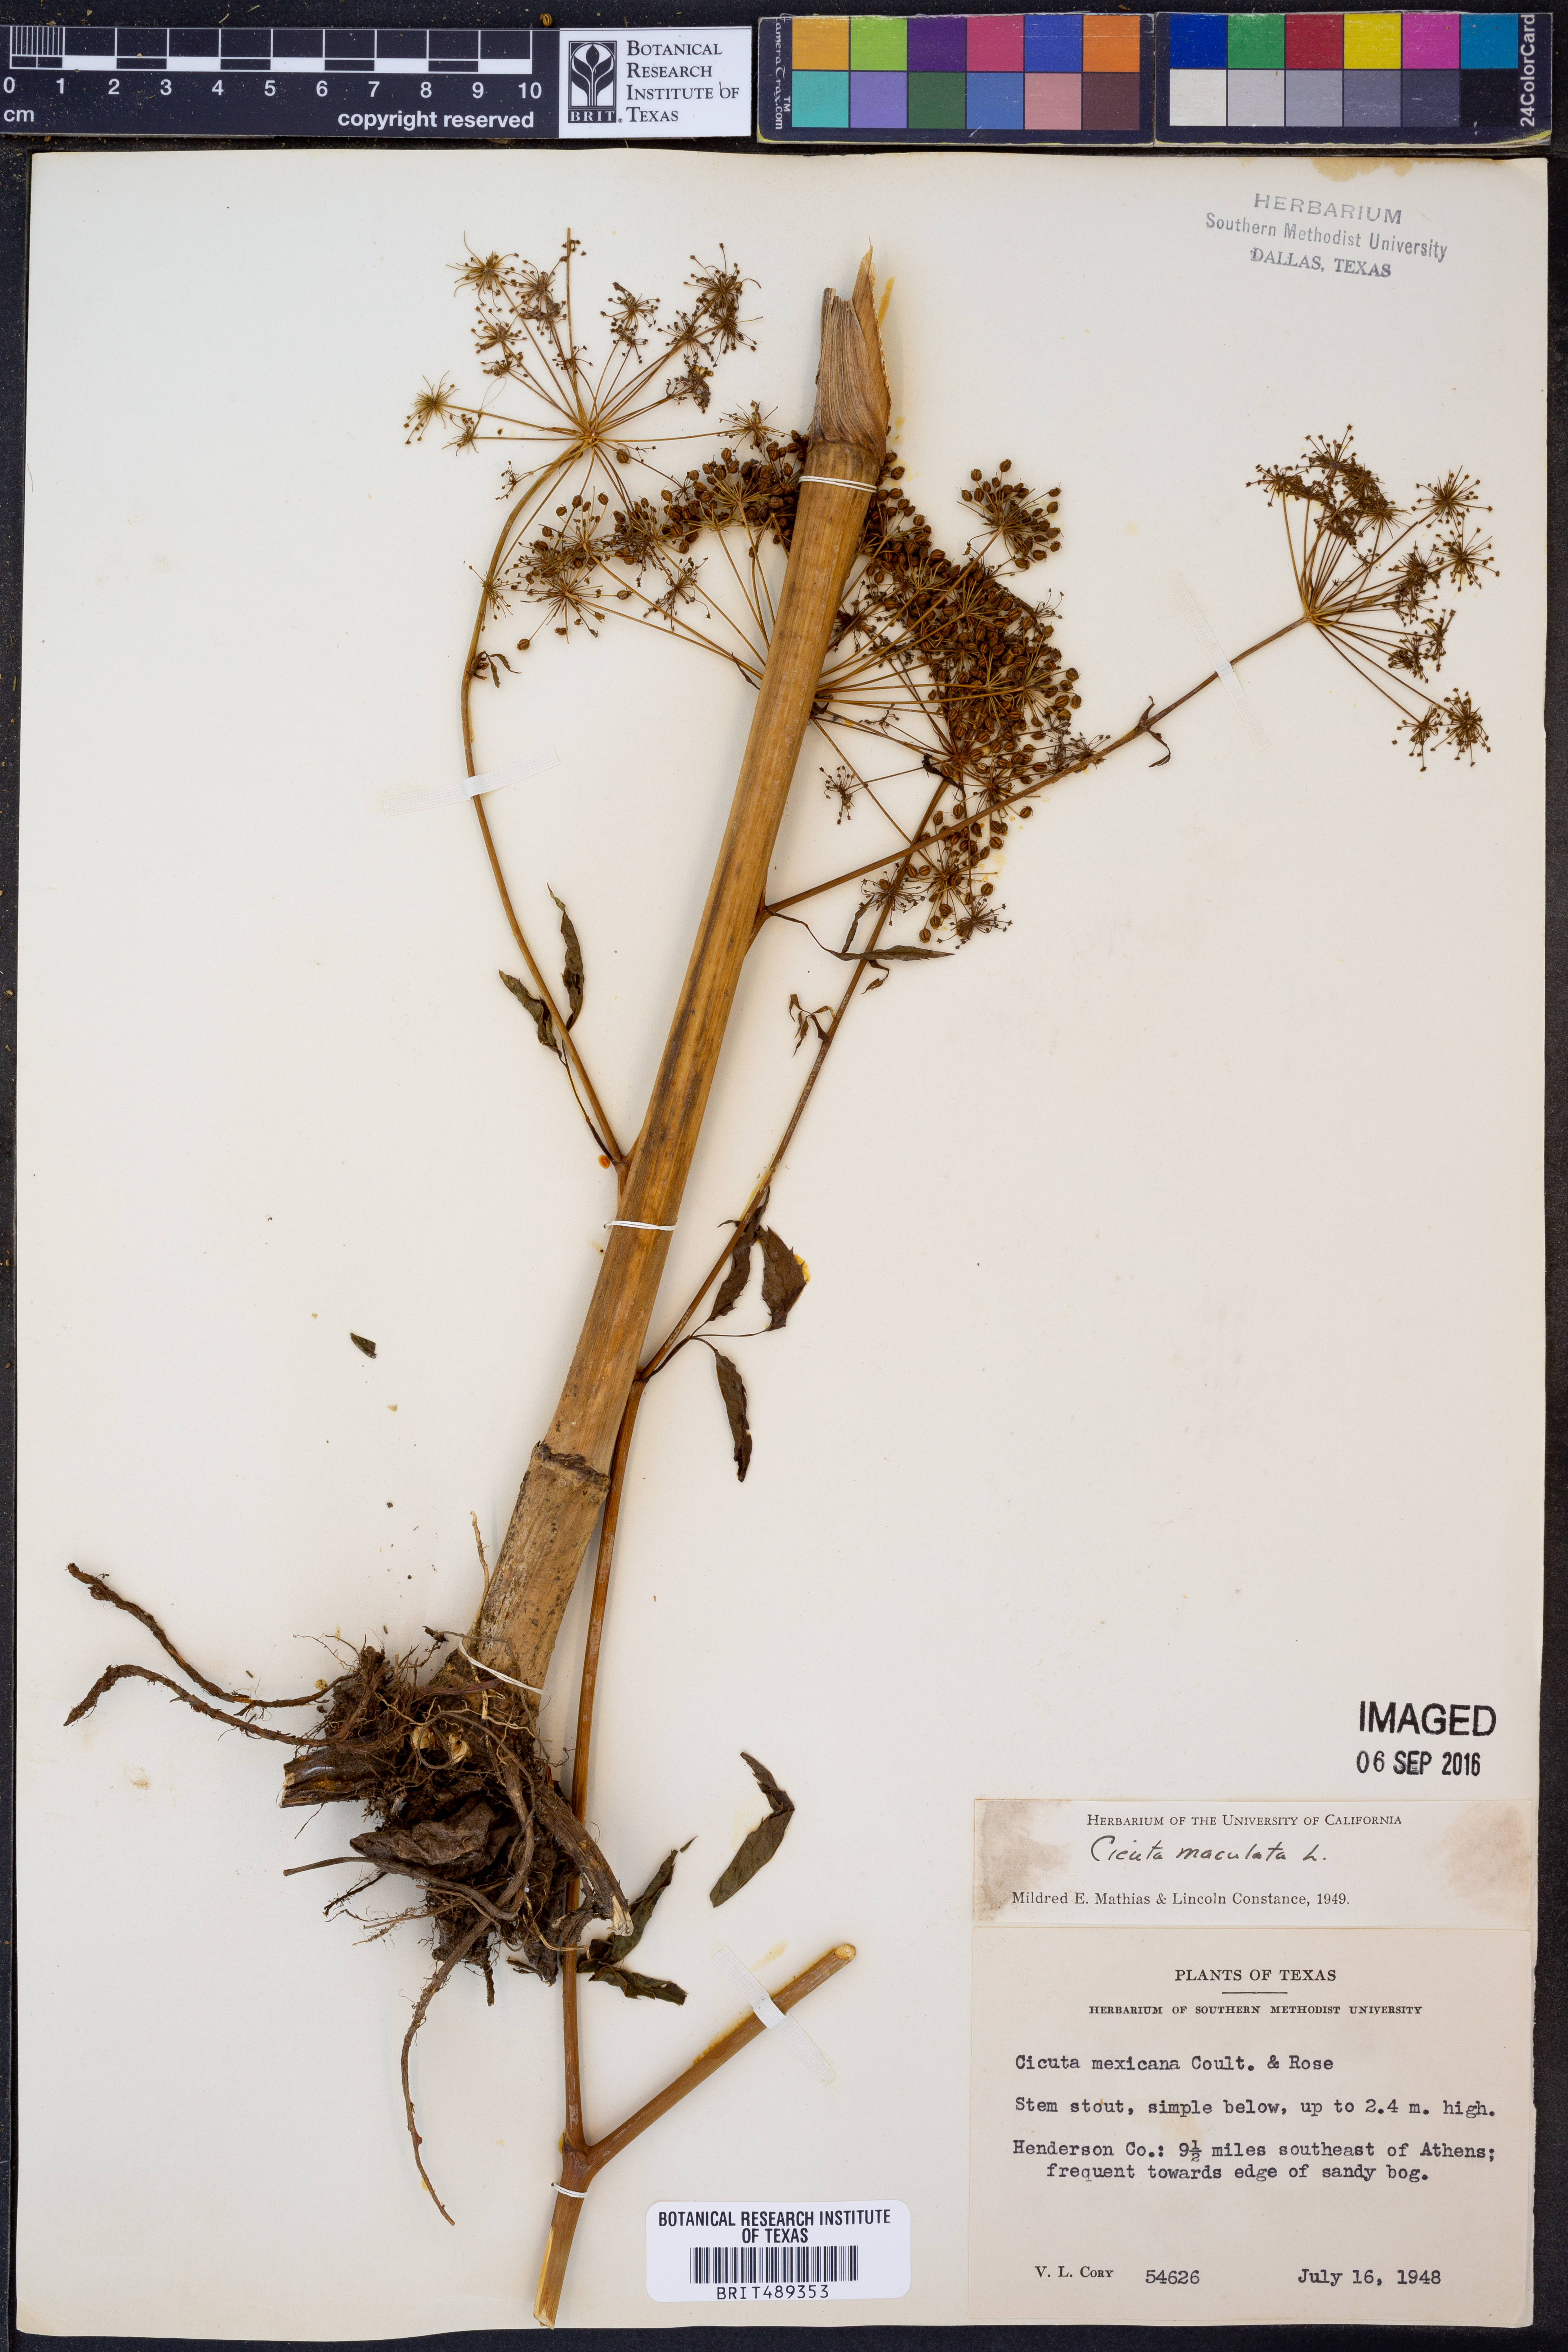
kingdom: Plantae
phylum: Tracheophyta
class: Magnoliopsida
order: Apiales
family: Apiaceae
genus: Cicuta
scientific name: Cicuta maculata
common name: Spotted cowbane
